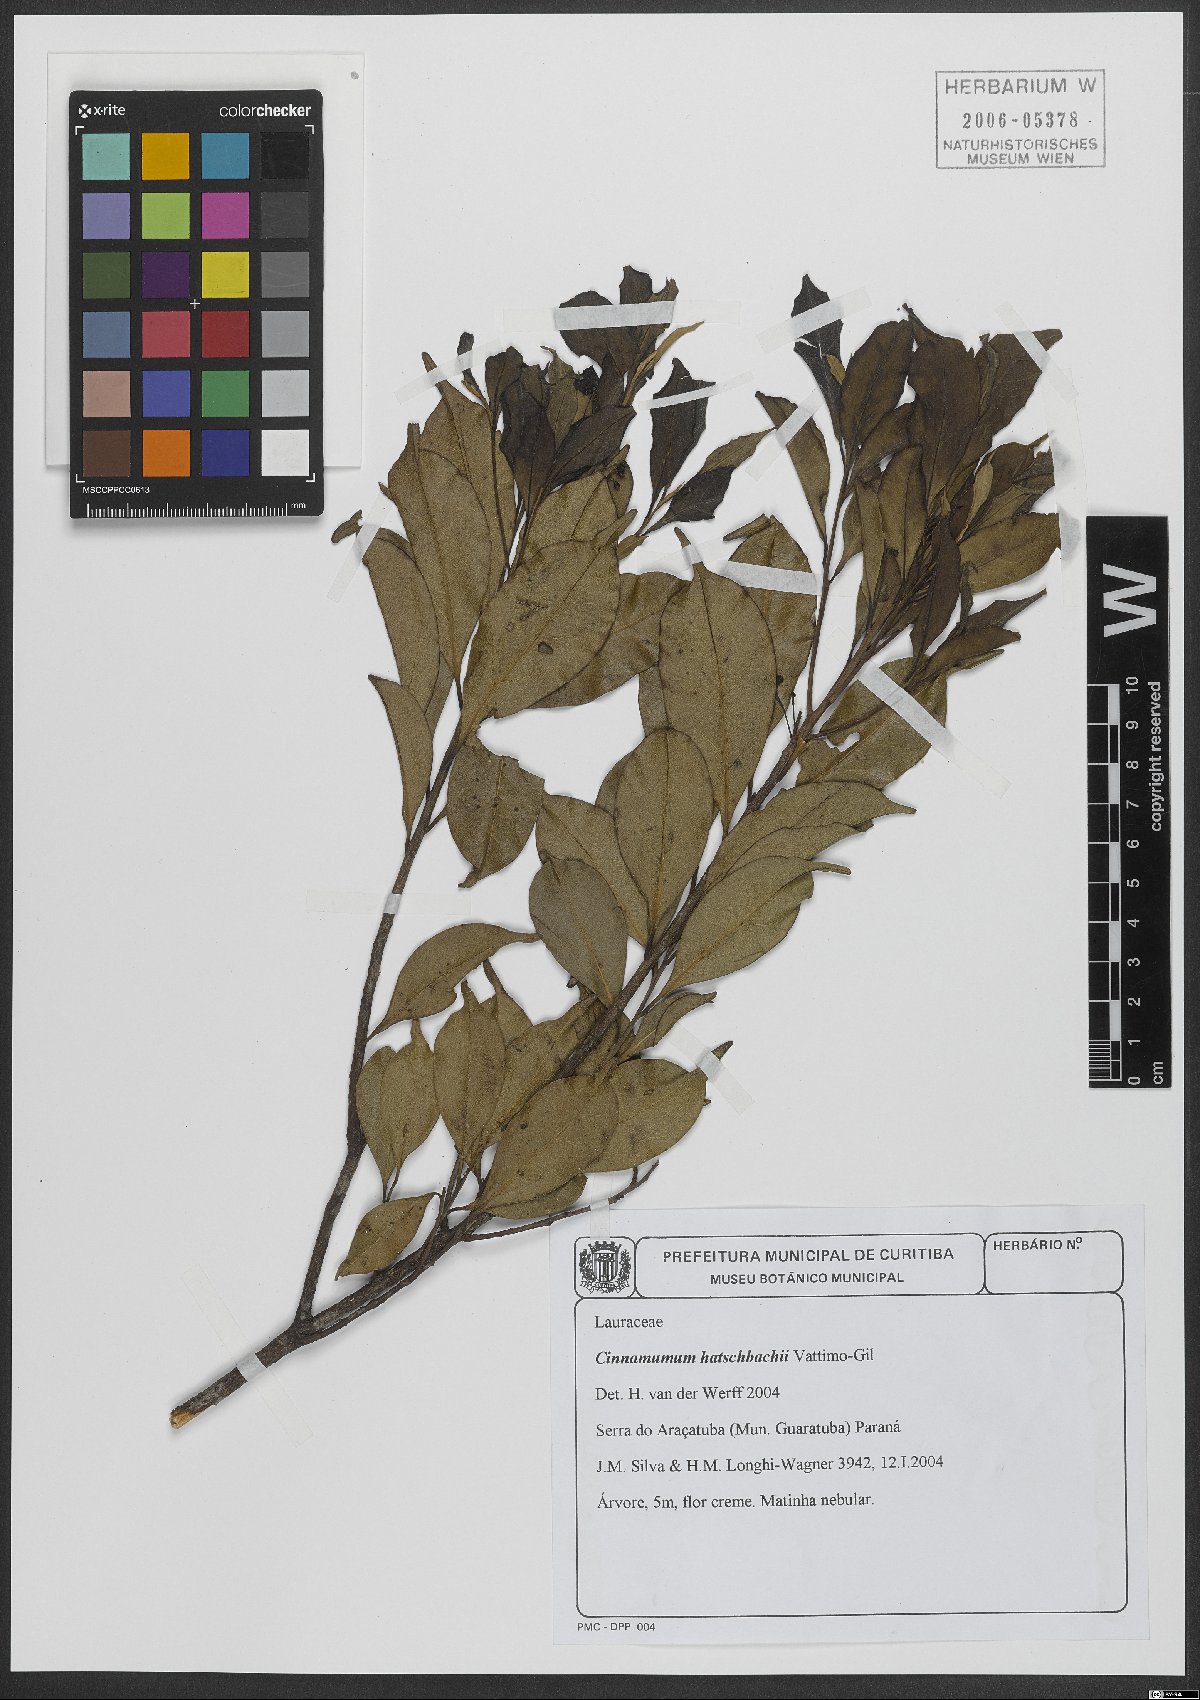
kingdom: Plantae
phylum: Tracheophyta
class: Magnoliopsida
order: Laurales
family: Lauraceae
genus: Aiouea
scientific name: Aiouea hatschbachii
